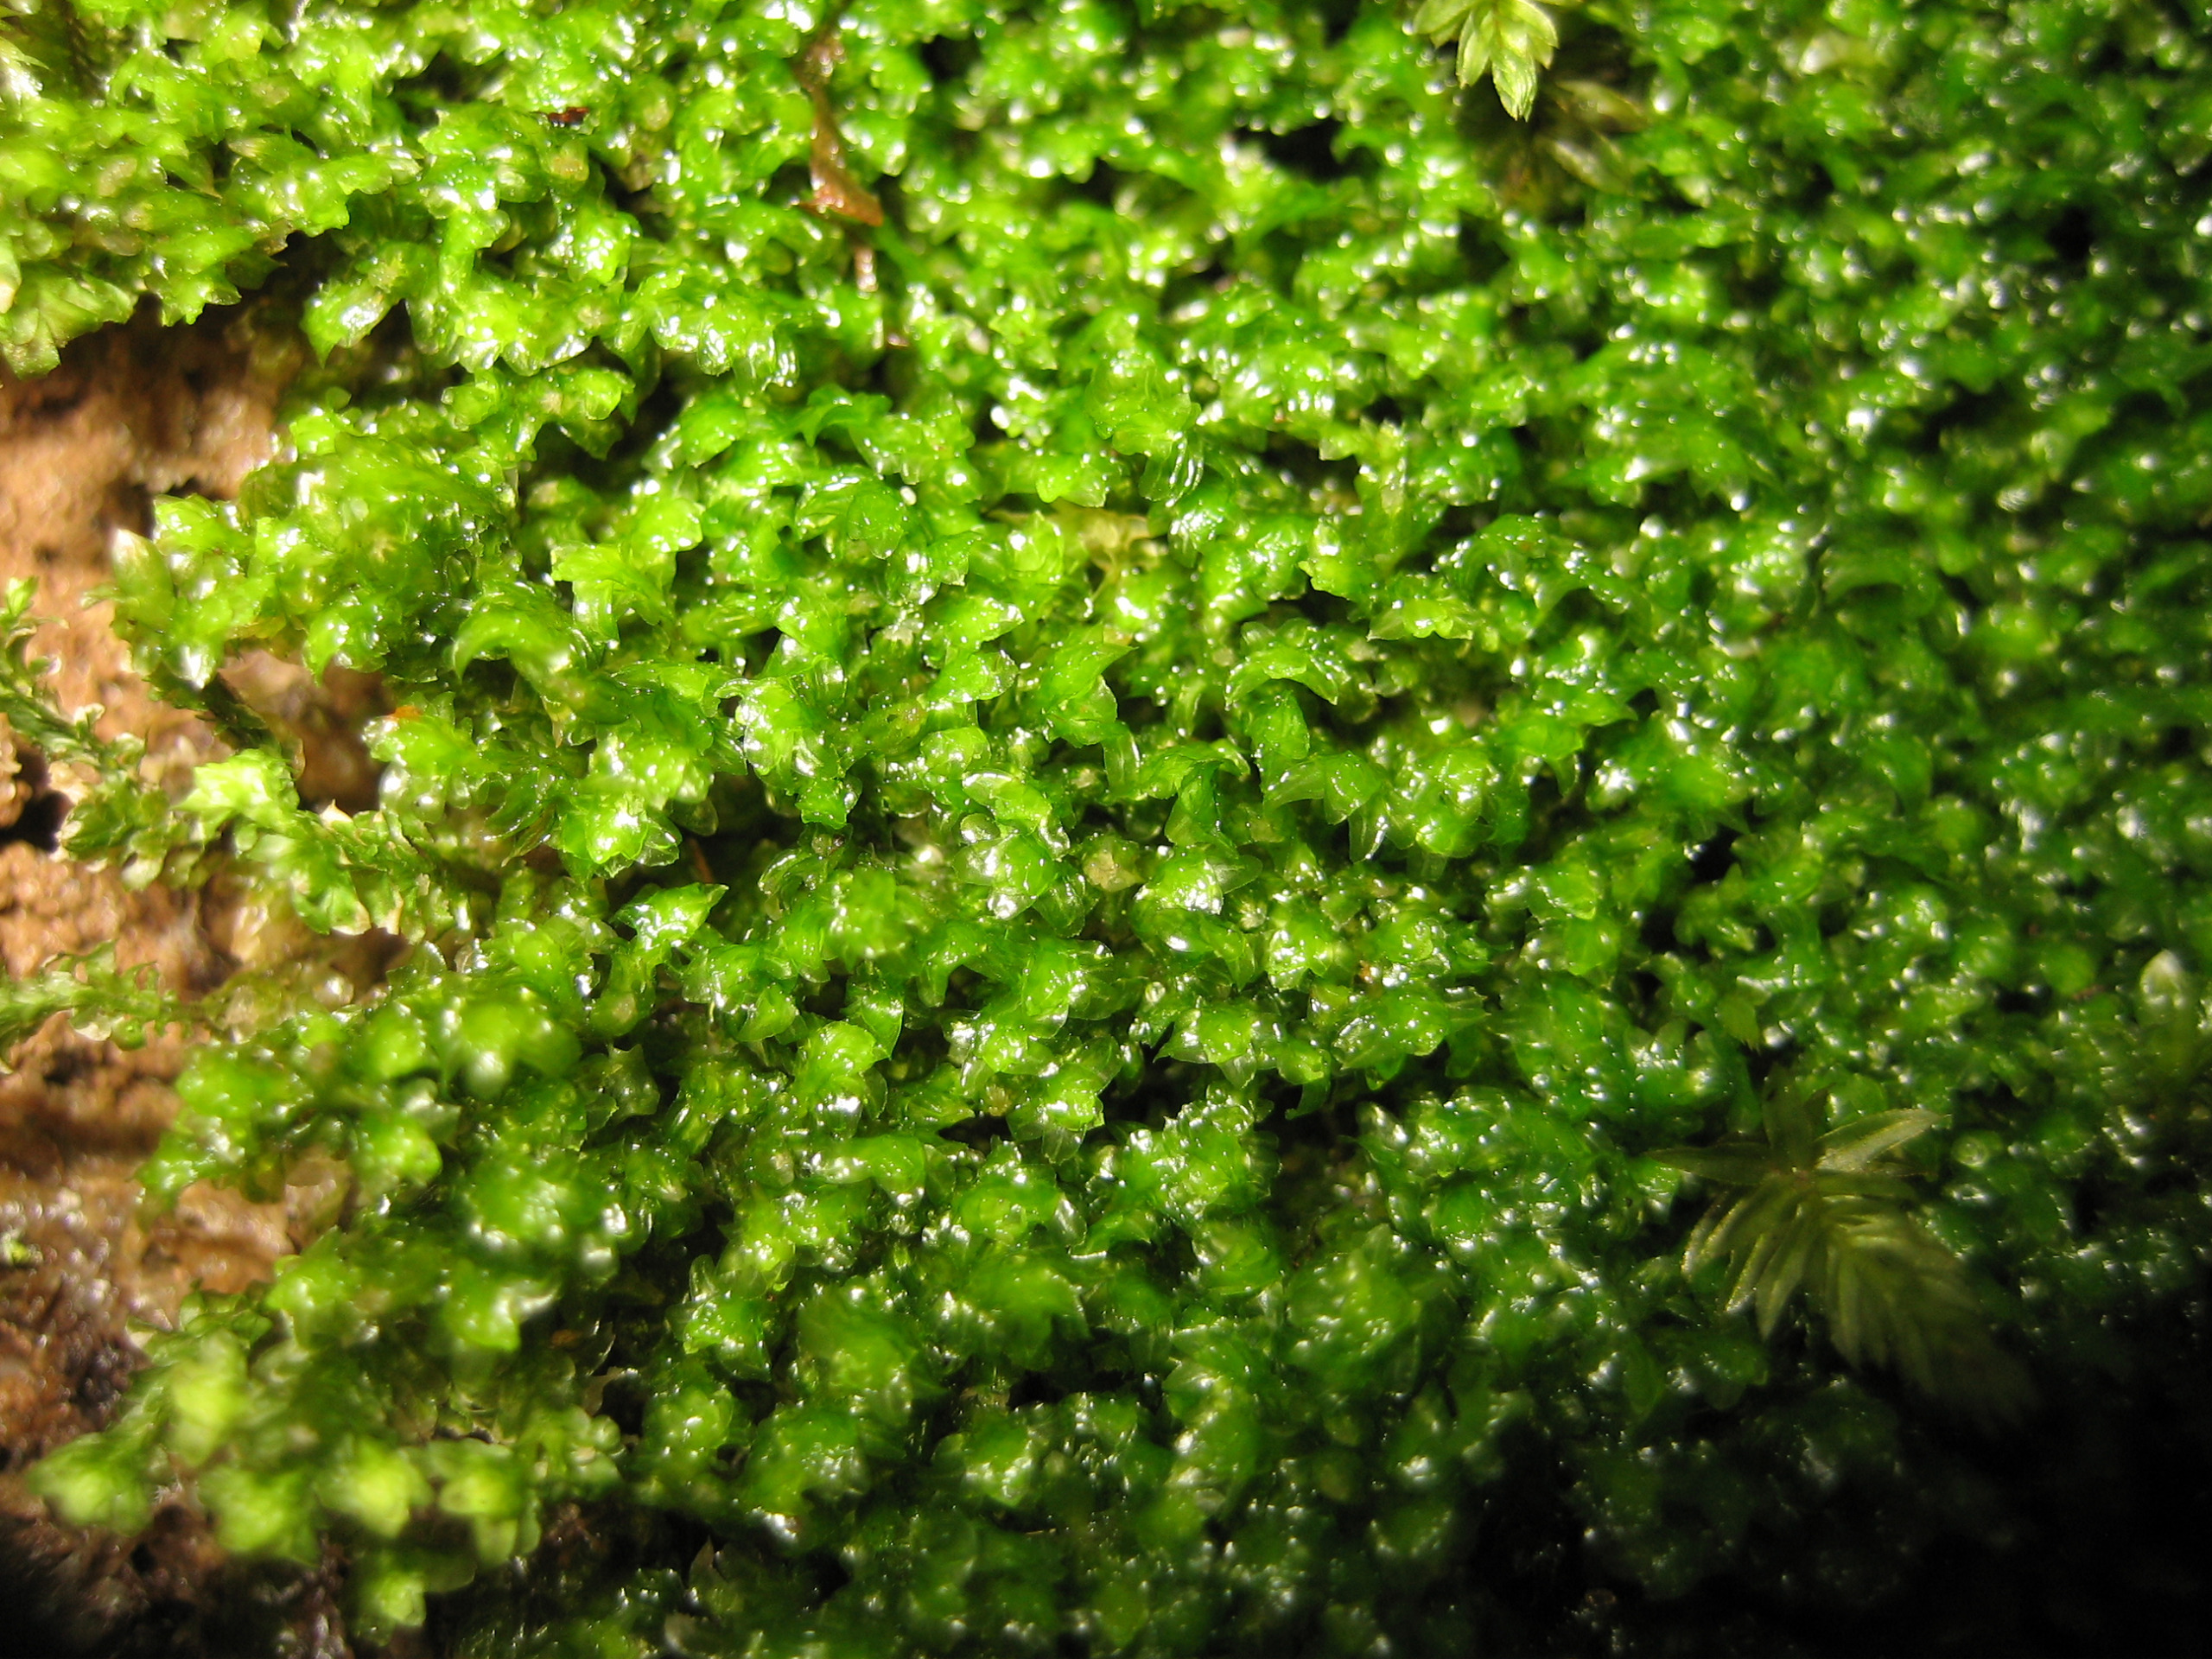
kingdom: Plantae
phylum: Marchantiophyta
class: Jungermanniopsida
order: Jungermanniales
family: Scapaniaceae
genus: Diplophyllum
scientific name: Diplophyllum albicans
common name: Stribet dobbeltblad
